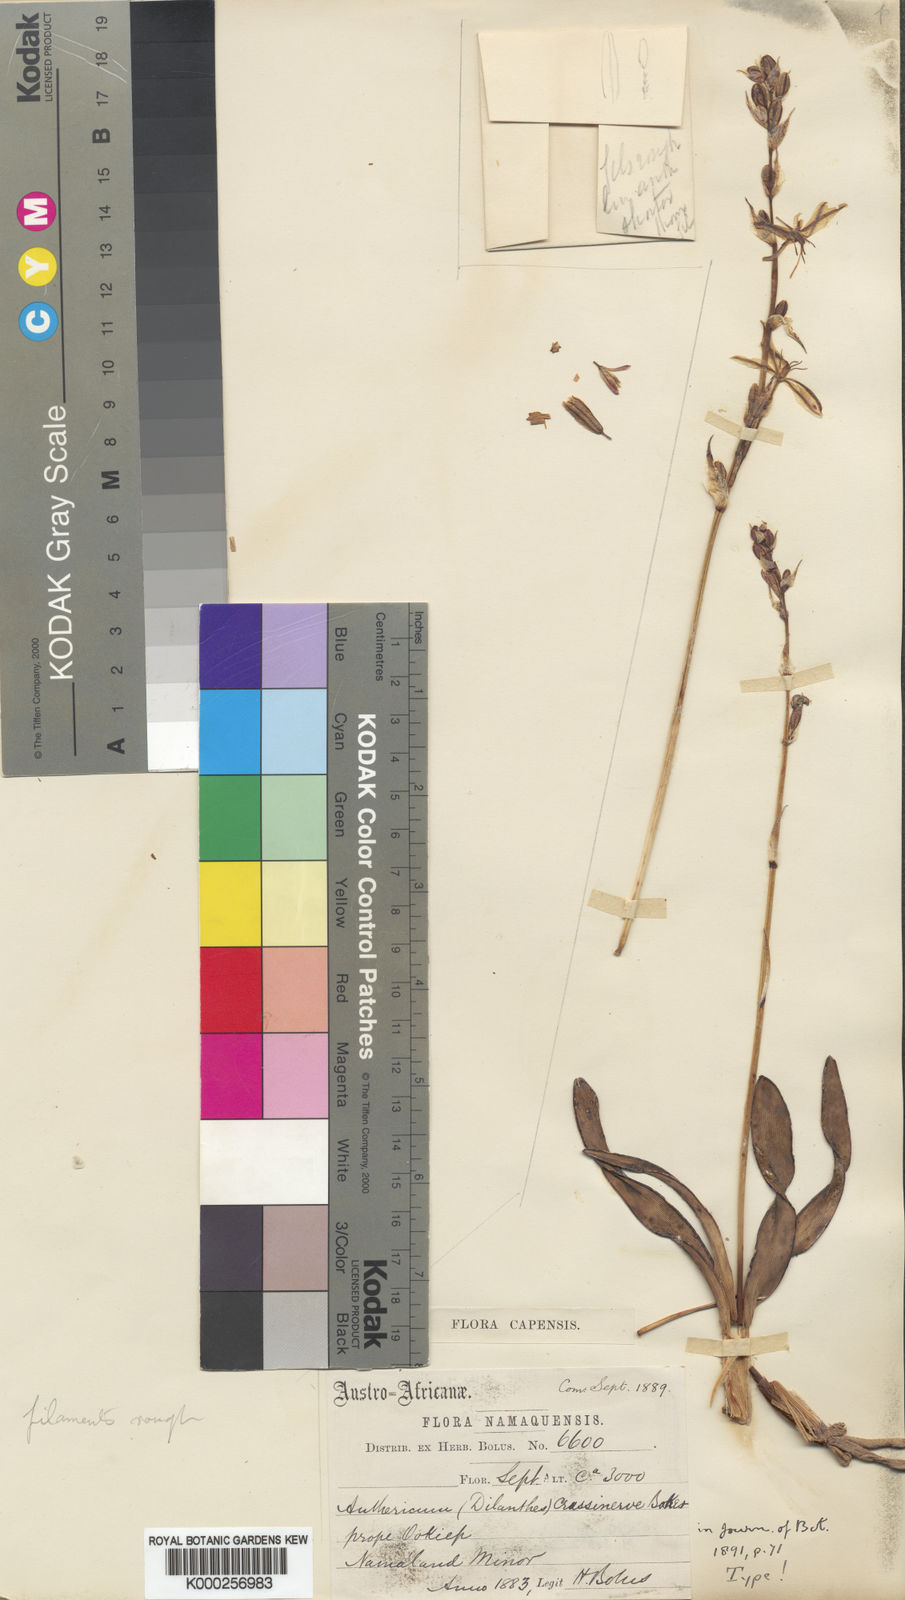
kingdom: Plantae
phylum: Tracheophyta
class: Liliopsida
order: Asparagales
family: Asparagaceae
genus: Chlorophytum
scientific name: Chlorophytum crassinerve
